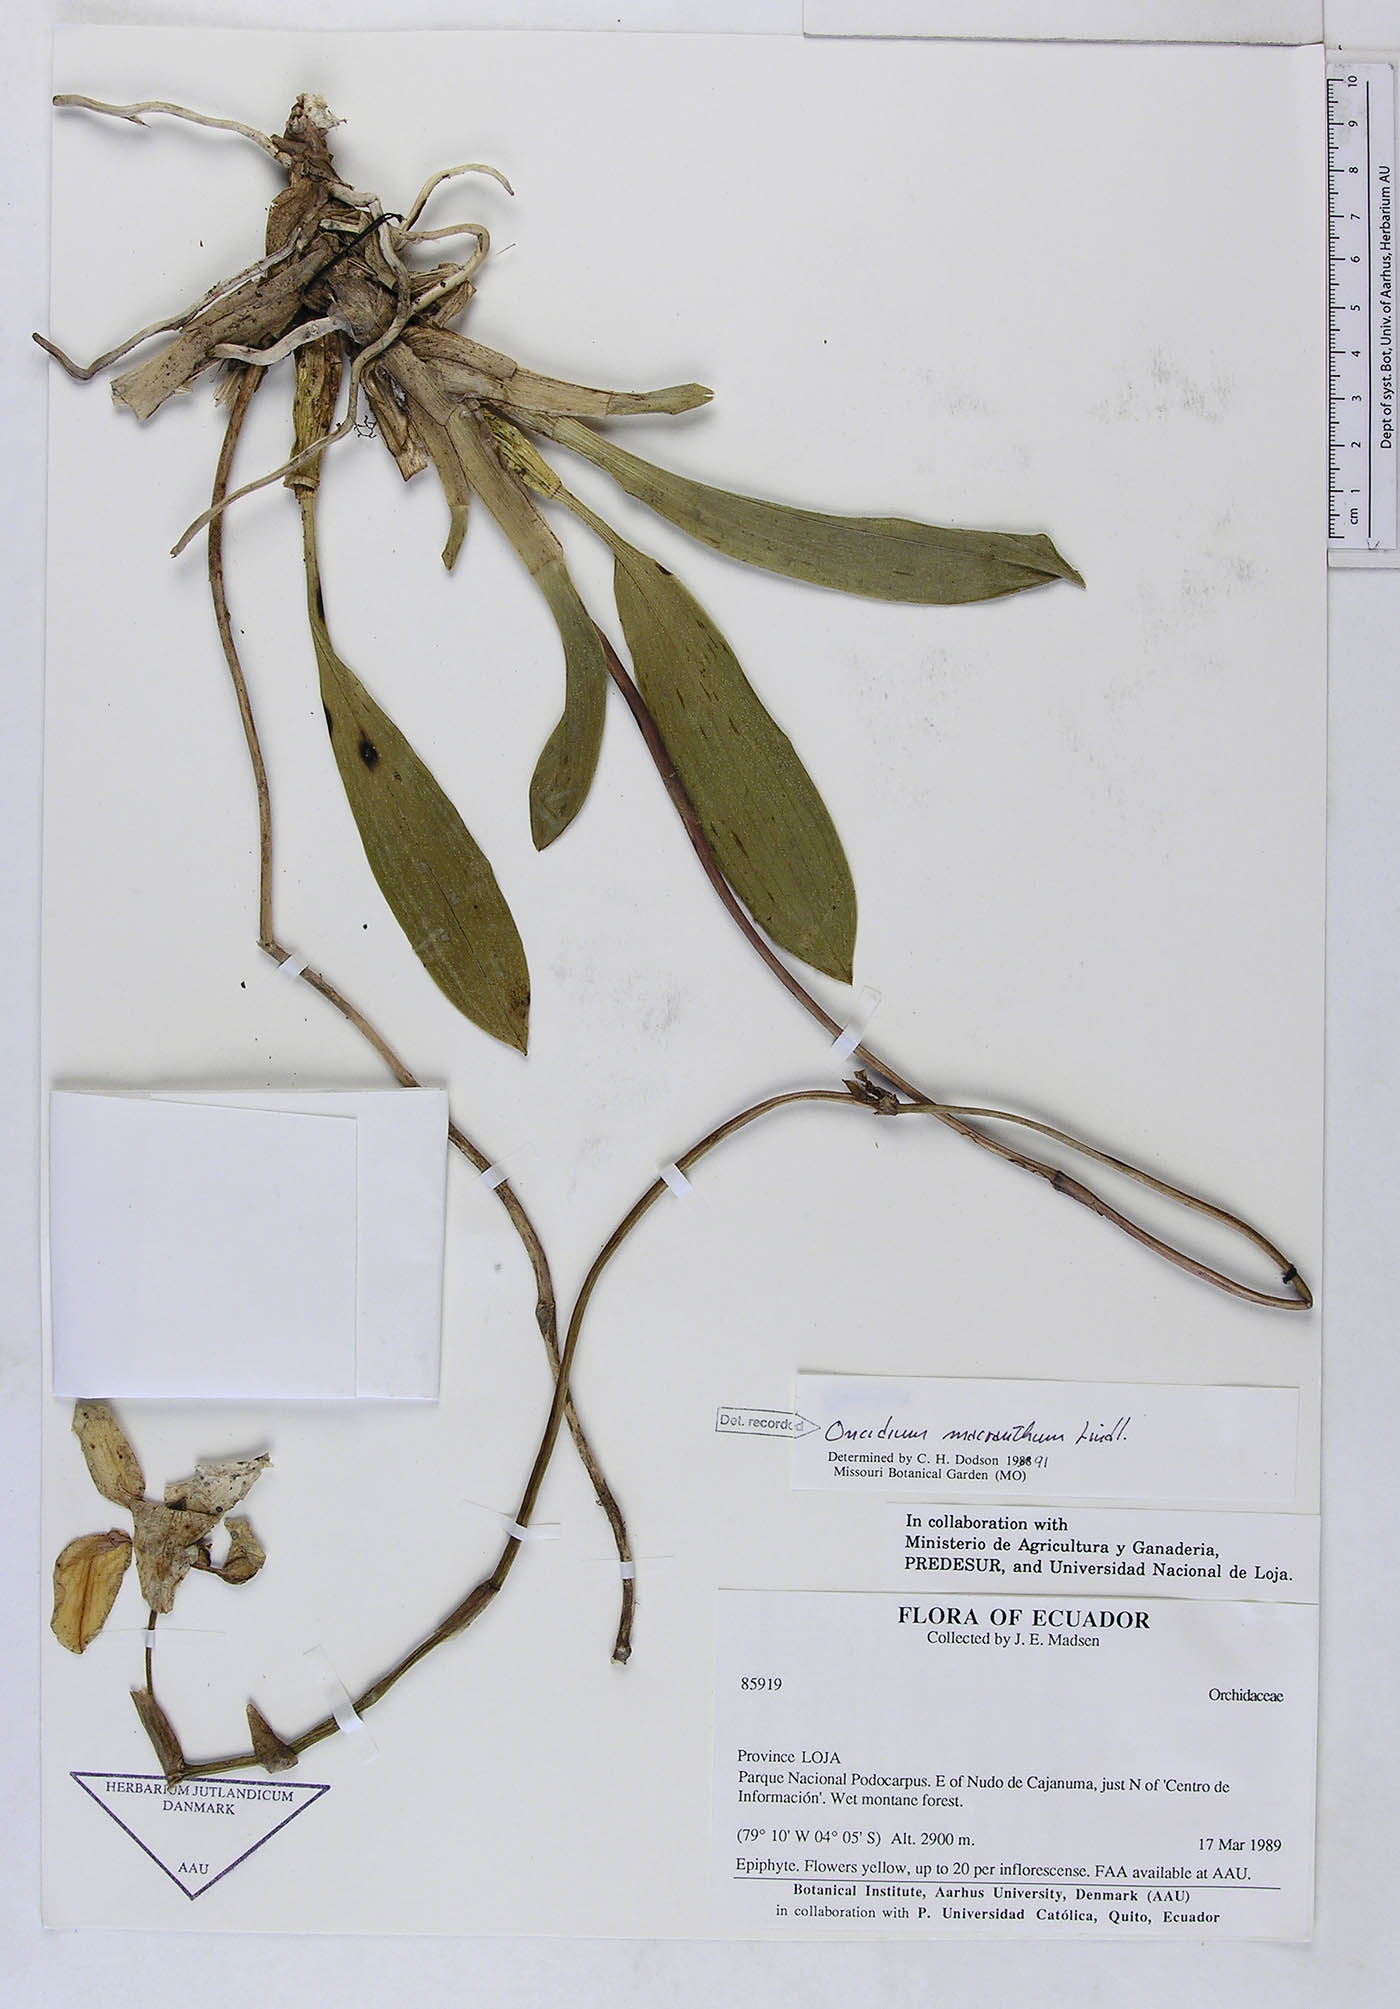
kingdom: Plantae
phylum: Tracheophyta
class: Liliopsida
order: Asparagales
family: Orchidaceae
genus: Cyrtochilum
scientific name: Cyrtochilum macranthum
